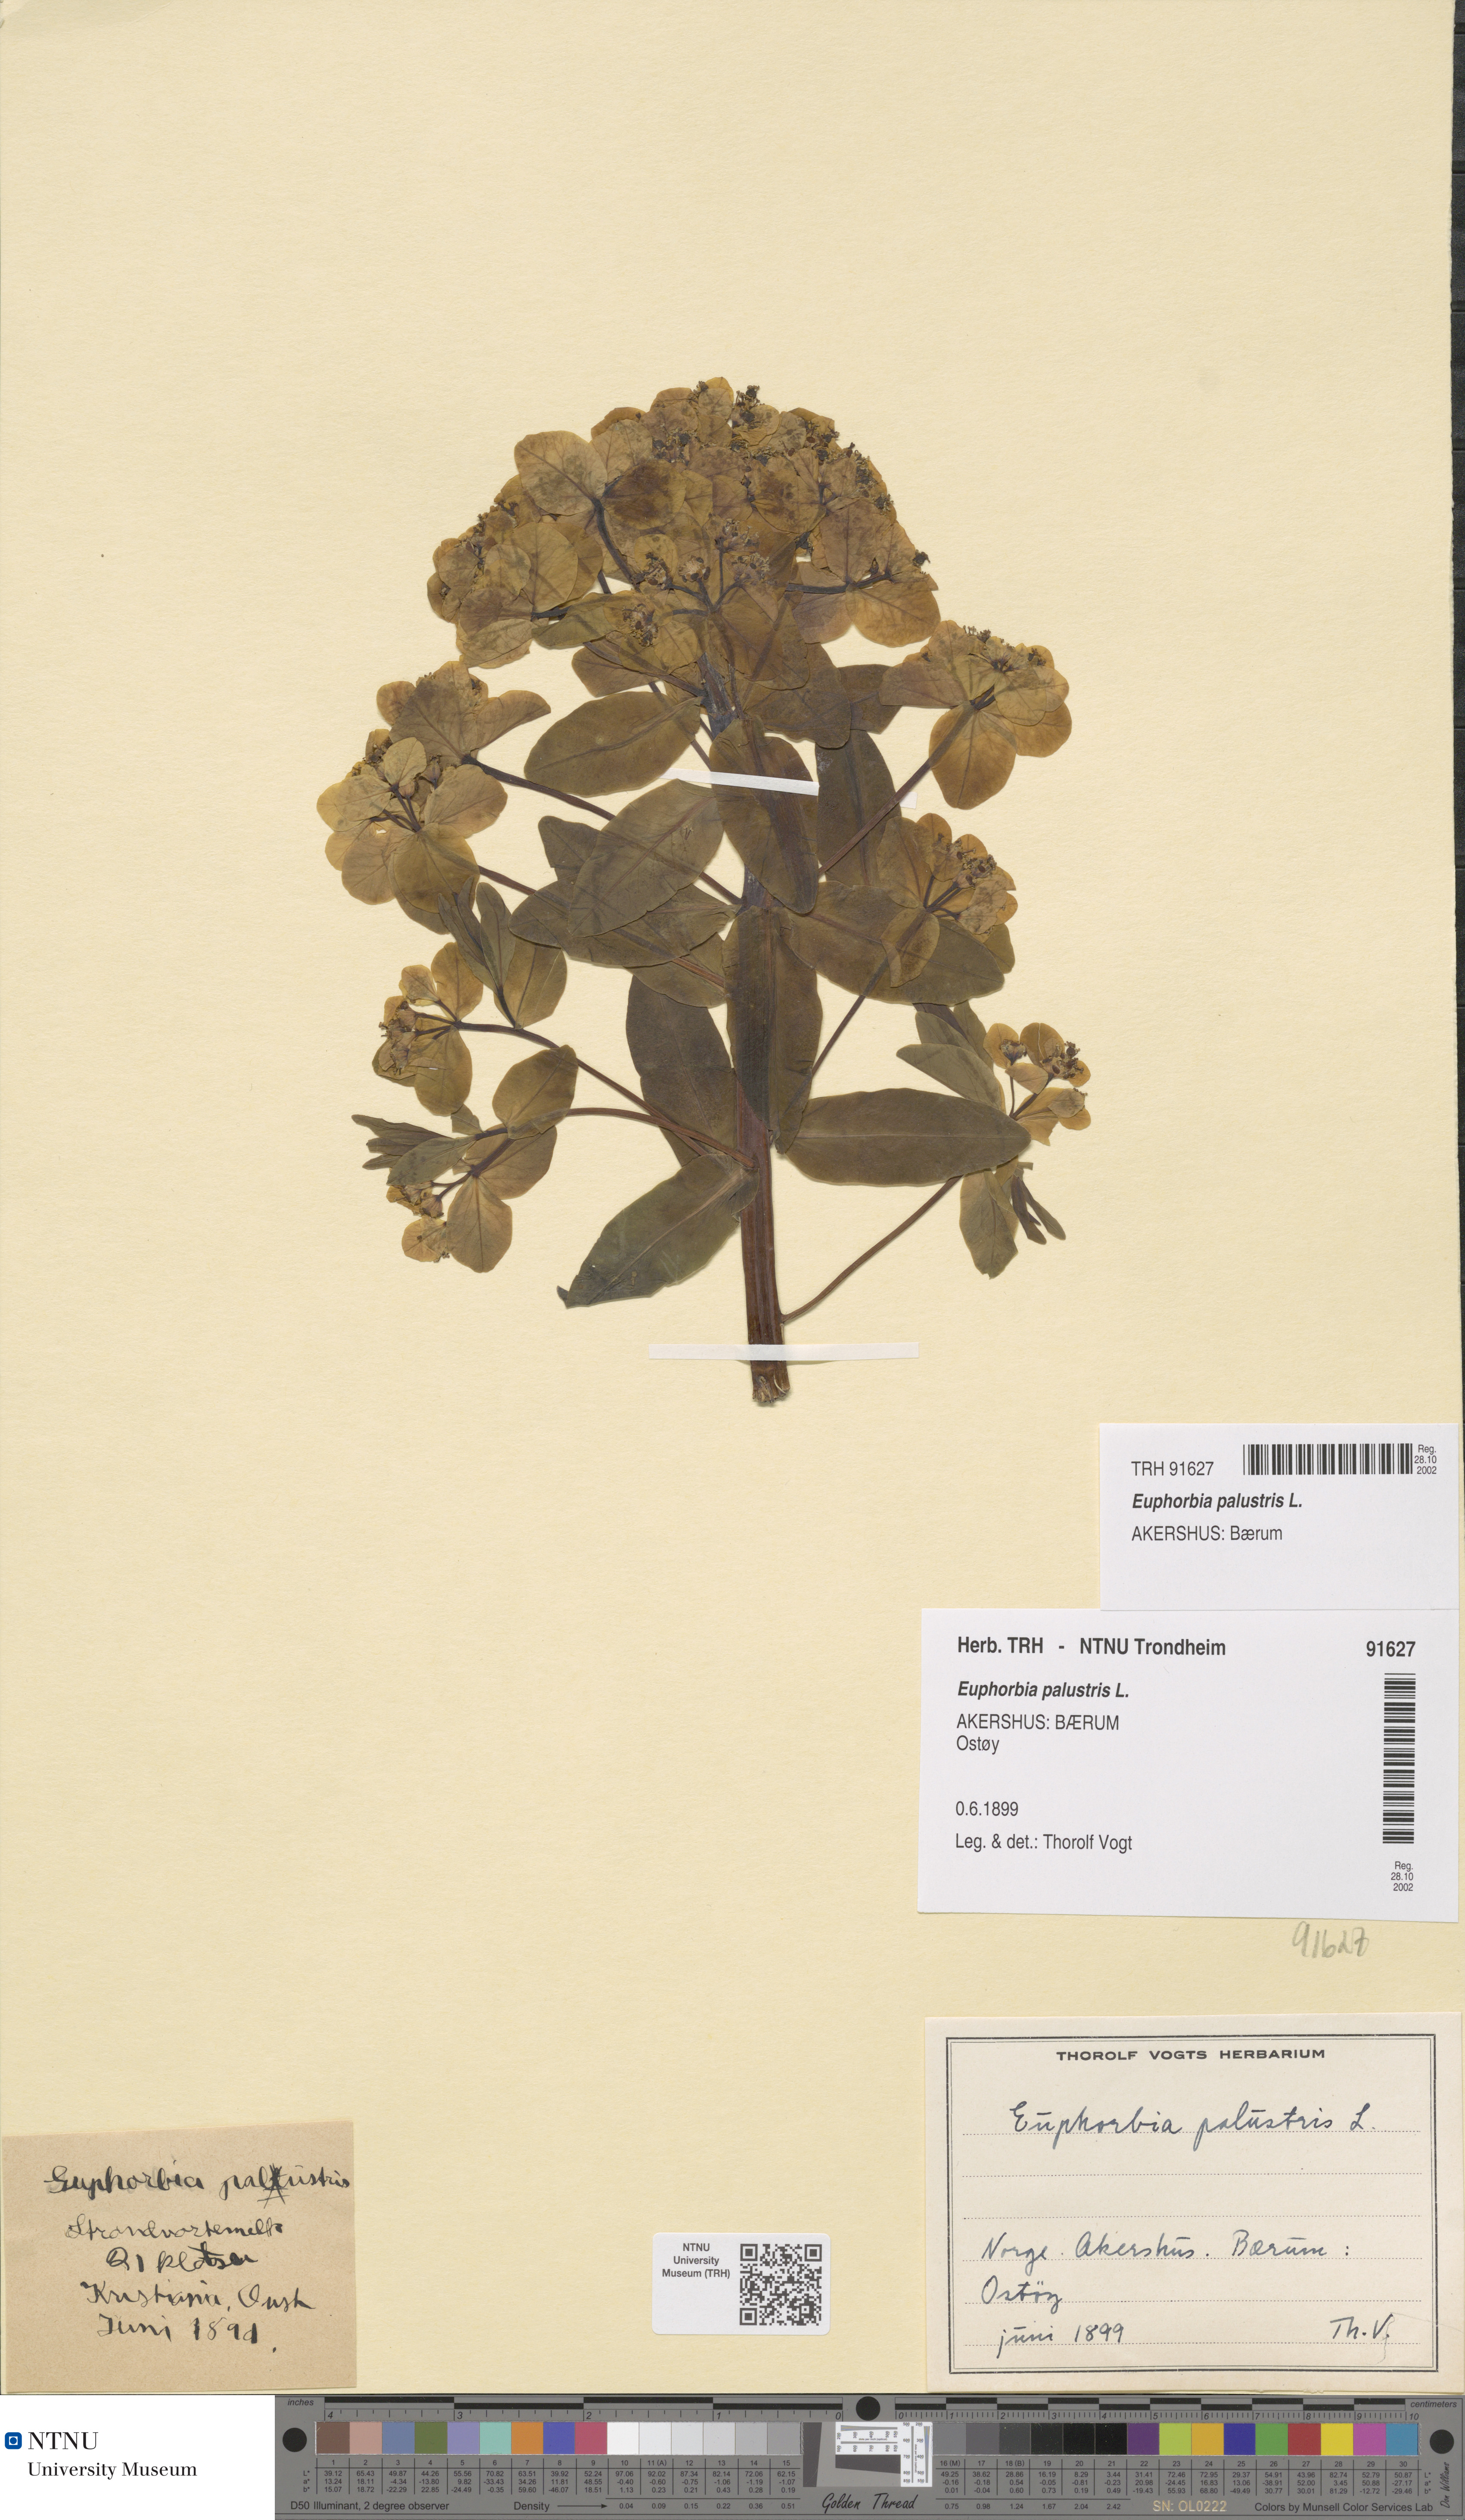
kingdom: Plantae
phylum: Tracheophyta
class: Magnoliopsida
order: Malpighiales
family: Euphorbiaceae
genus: Euphorbia
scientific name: Euphorbia palustris
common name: Marsh spurge
